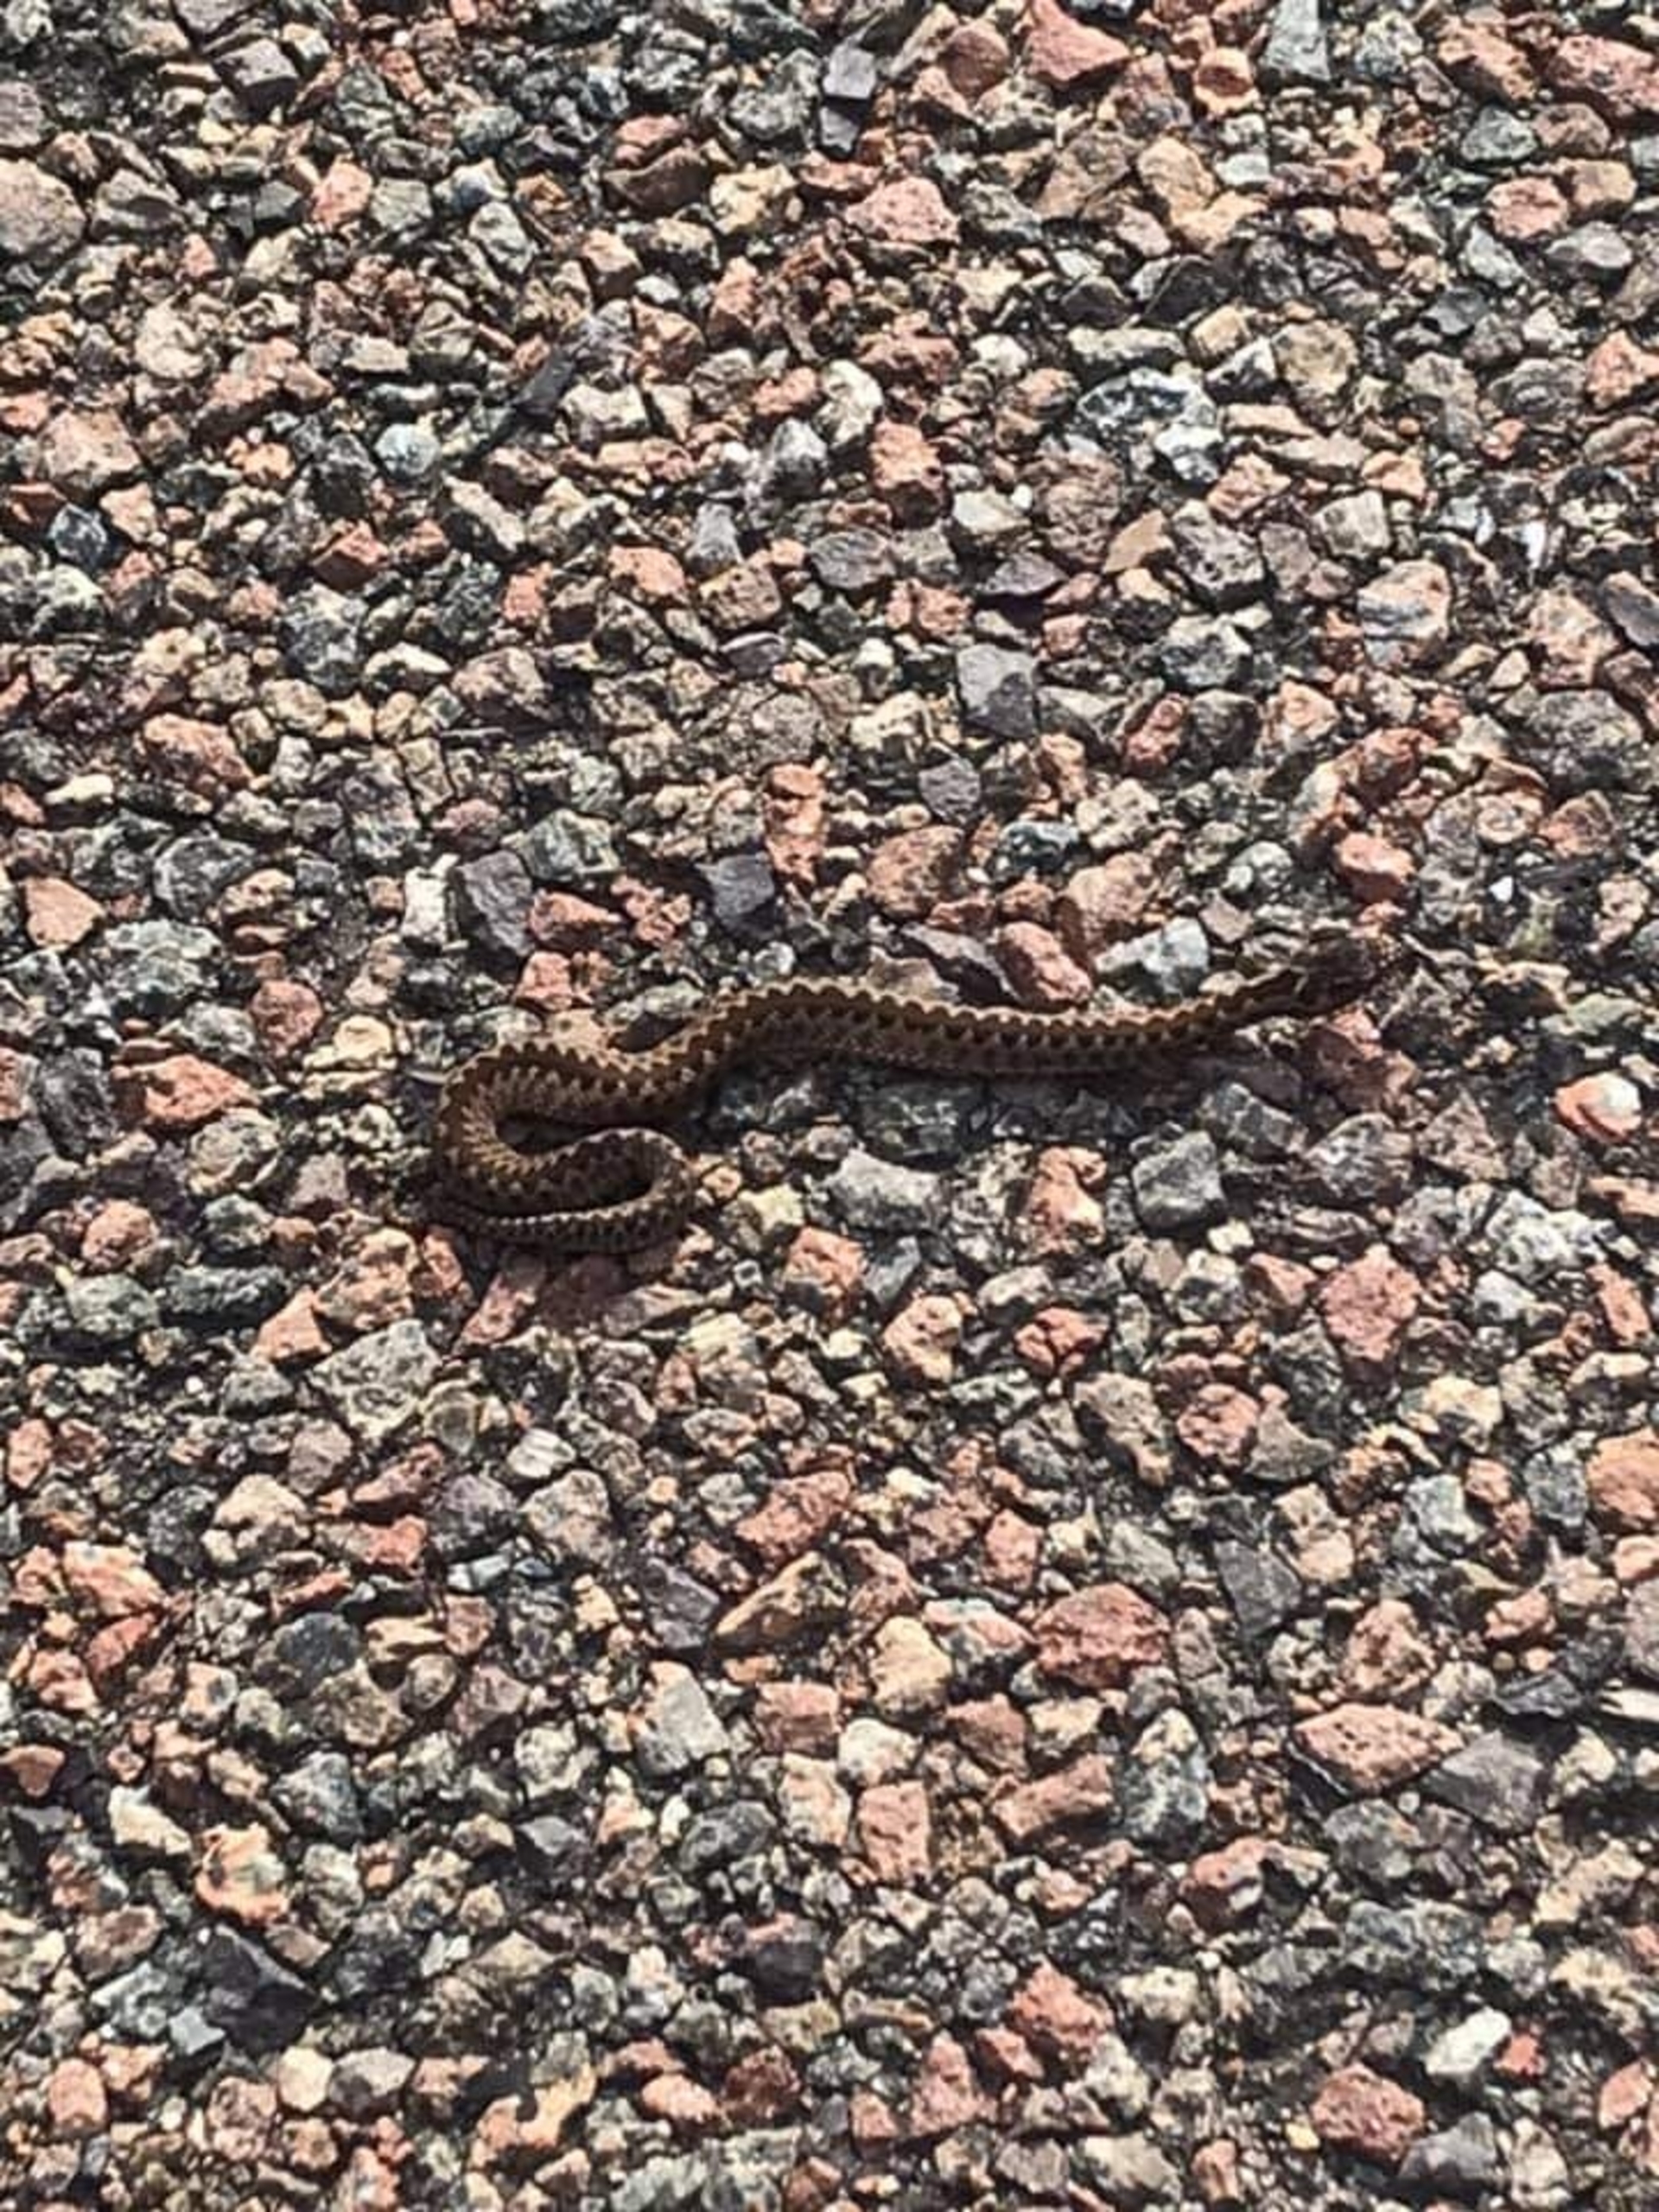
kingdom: Animalia
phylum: Chordata
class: Squamata
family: Viperidae
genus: Vipera
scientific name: Vipera berus
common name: Hugorm
